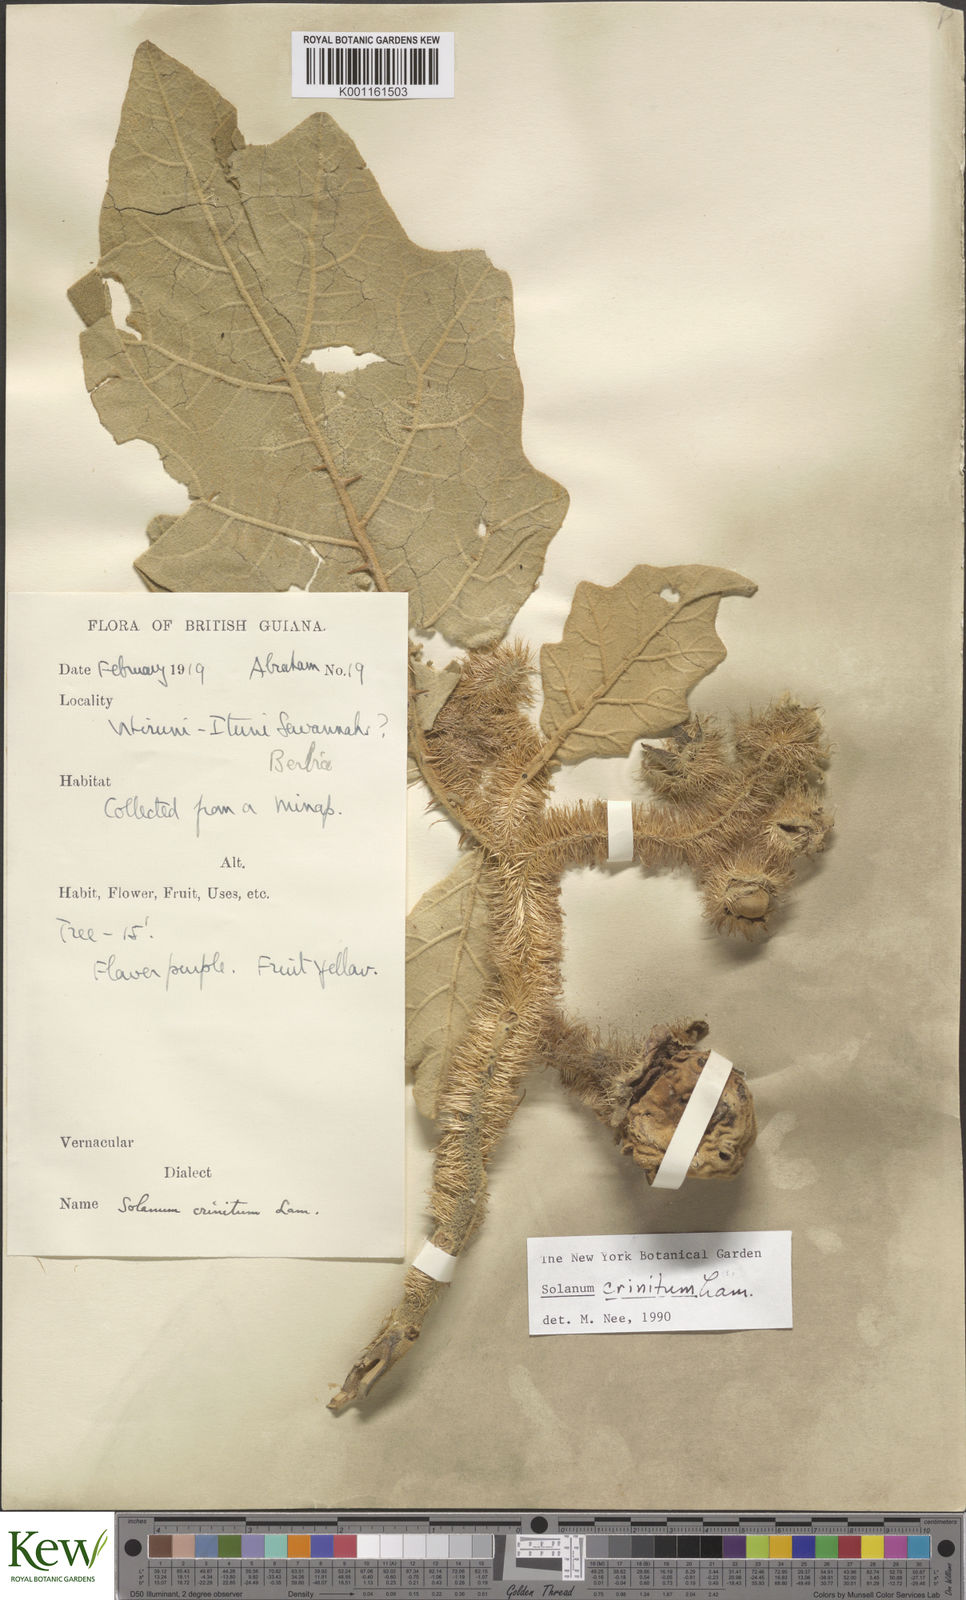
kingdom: Plantae
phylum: Tracheophyta
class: Magnoliopsida
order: Solanales
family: Solanaceae
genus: Solanum
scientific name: Solanum crinitum
